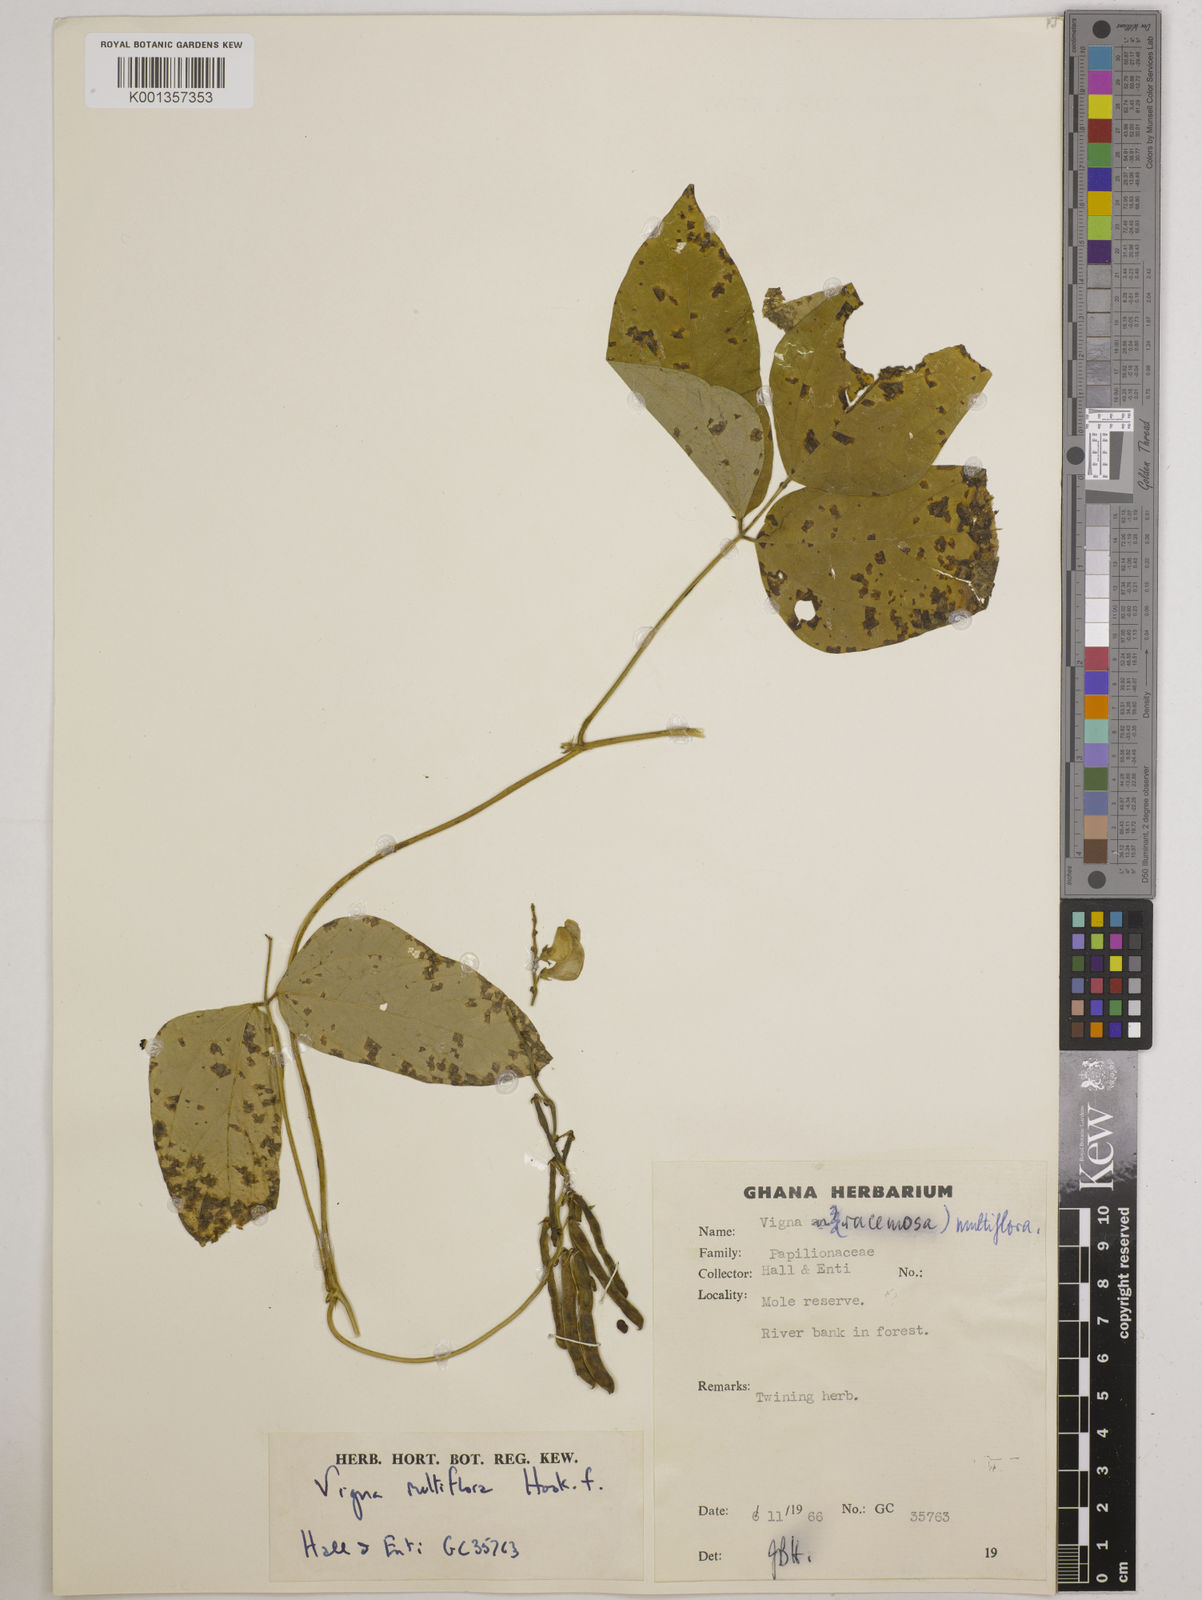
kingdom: Plantae
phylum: Tracheophyta
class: Magnoliopsida
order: Fabales
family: Fabaceae
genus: Vigna
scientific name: Vigna gracilis
